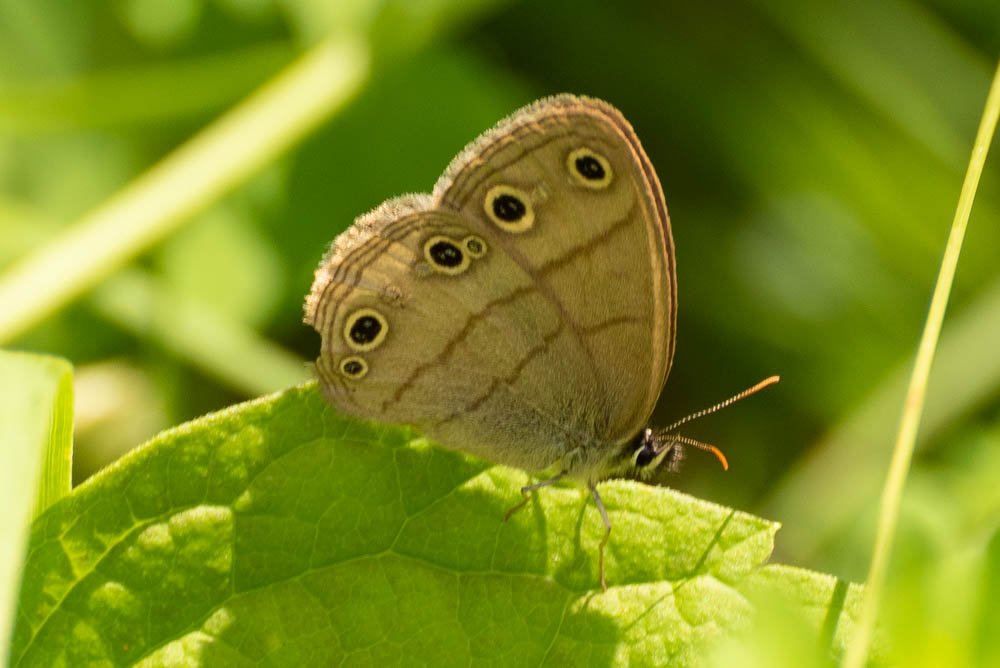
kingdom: Animalia
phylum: Arthropoda
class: Insecta
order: Lepidoptera
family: Nymphalidae
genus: Euptychia
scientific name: Euptychia cymela
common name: Little Wood Satyr
